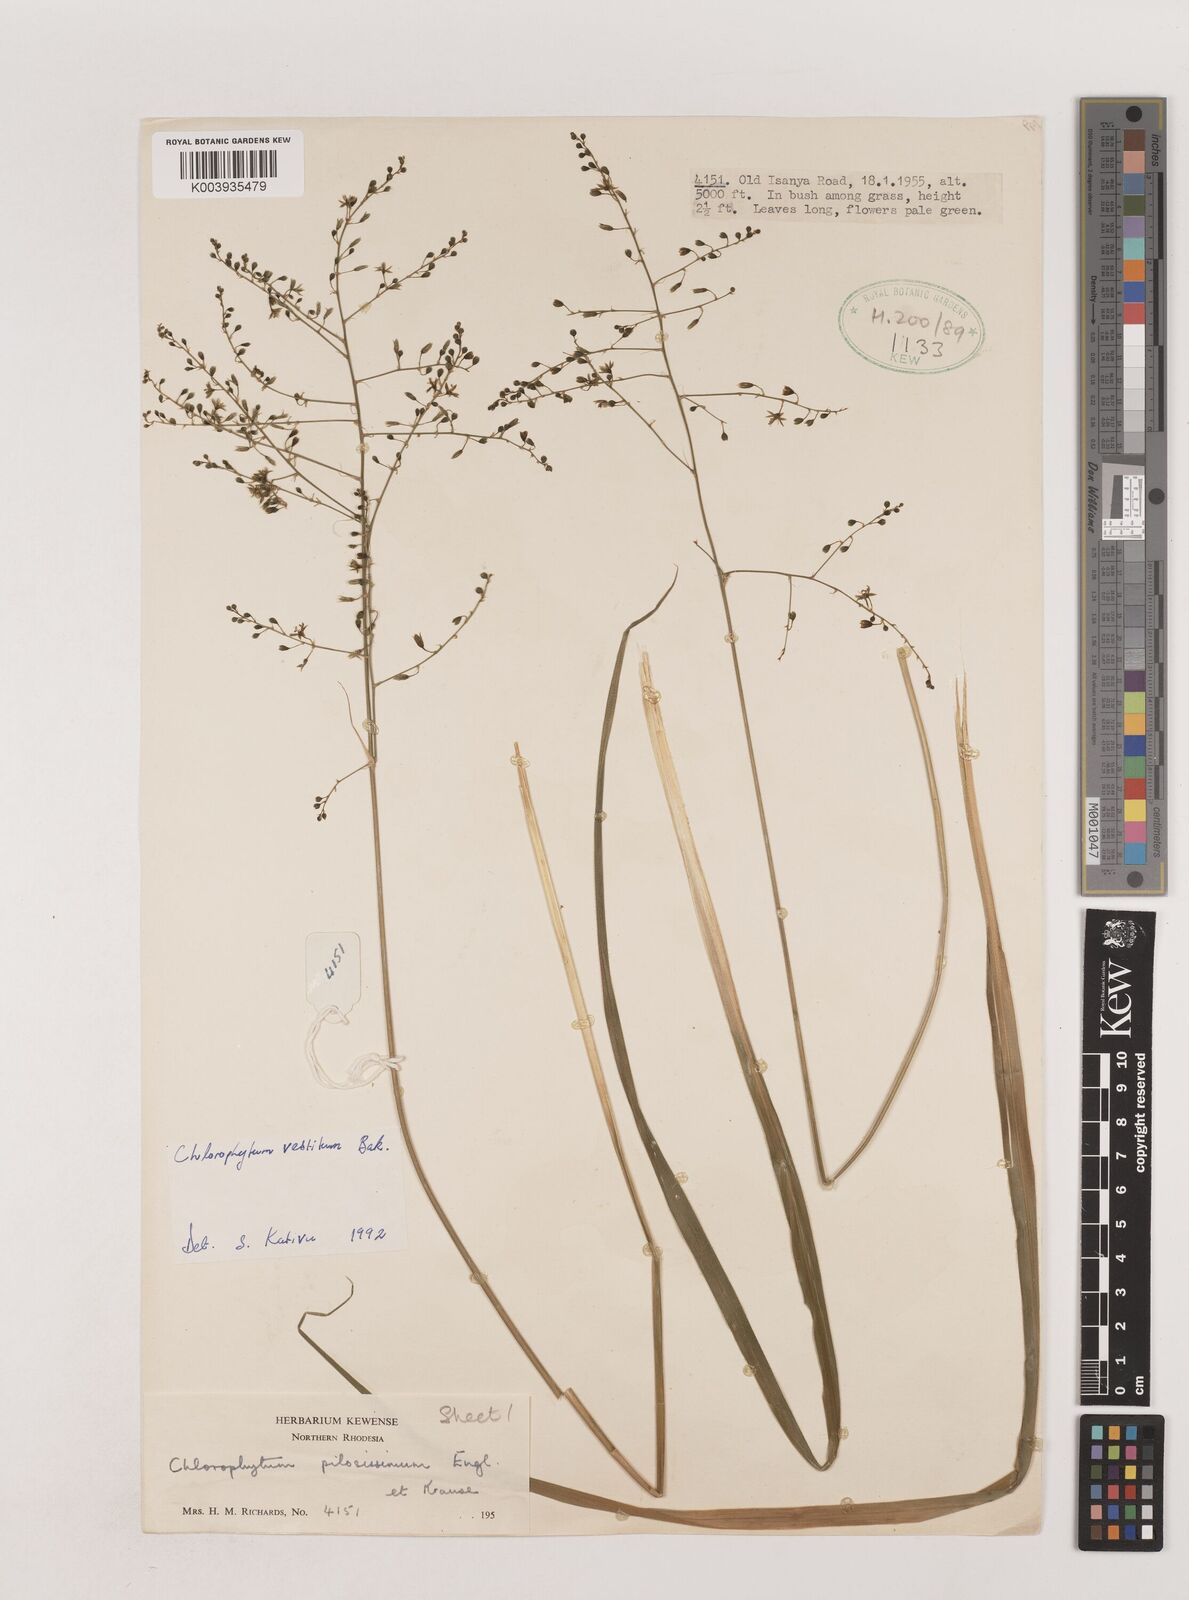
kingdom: Plantae
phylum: Tracheophyta
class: Liliopsida
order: Asparagales
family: Asparagaceae
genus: Chlorophytum
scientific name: Chlorophytum vestitum
